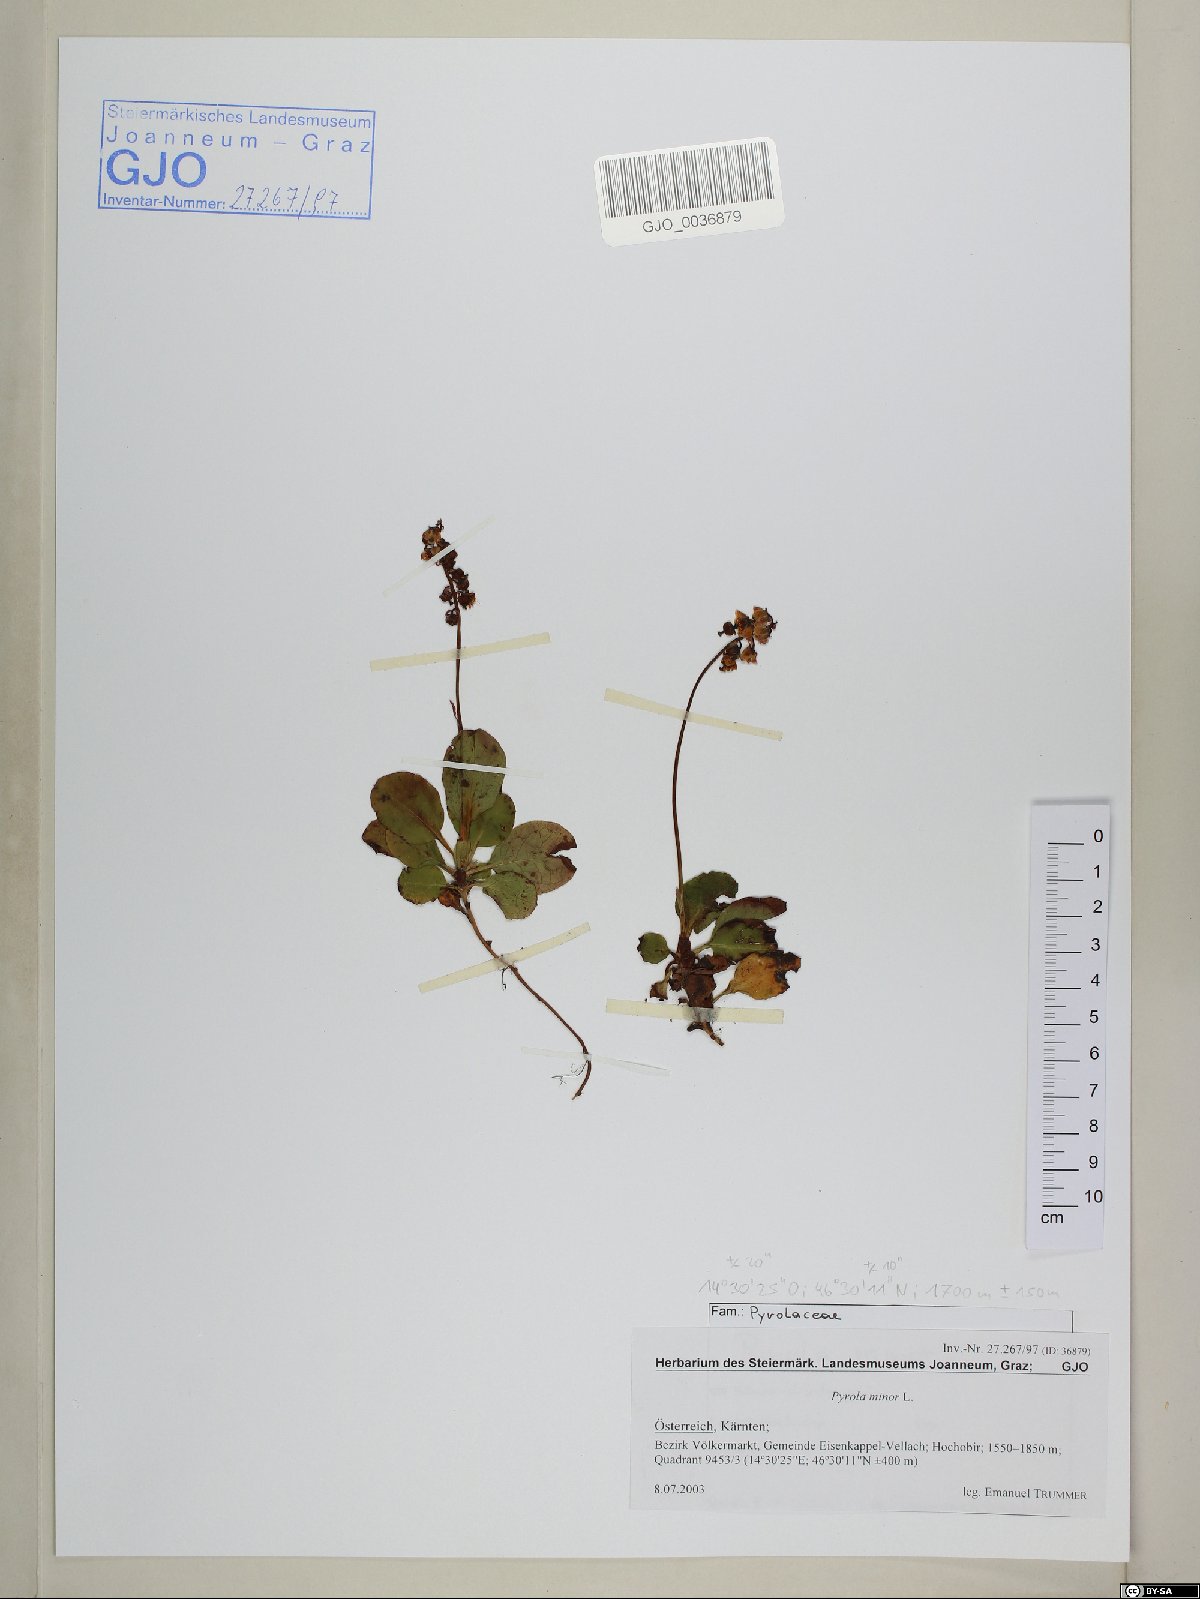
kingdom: Plantae
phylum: Tracheophyta
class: Magnoliopsida
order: Ericales
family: Ericaceae
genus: Pyrola
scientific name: Pyrola minor
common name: Common wintergreen
